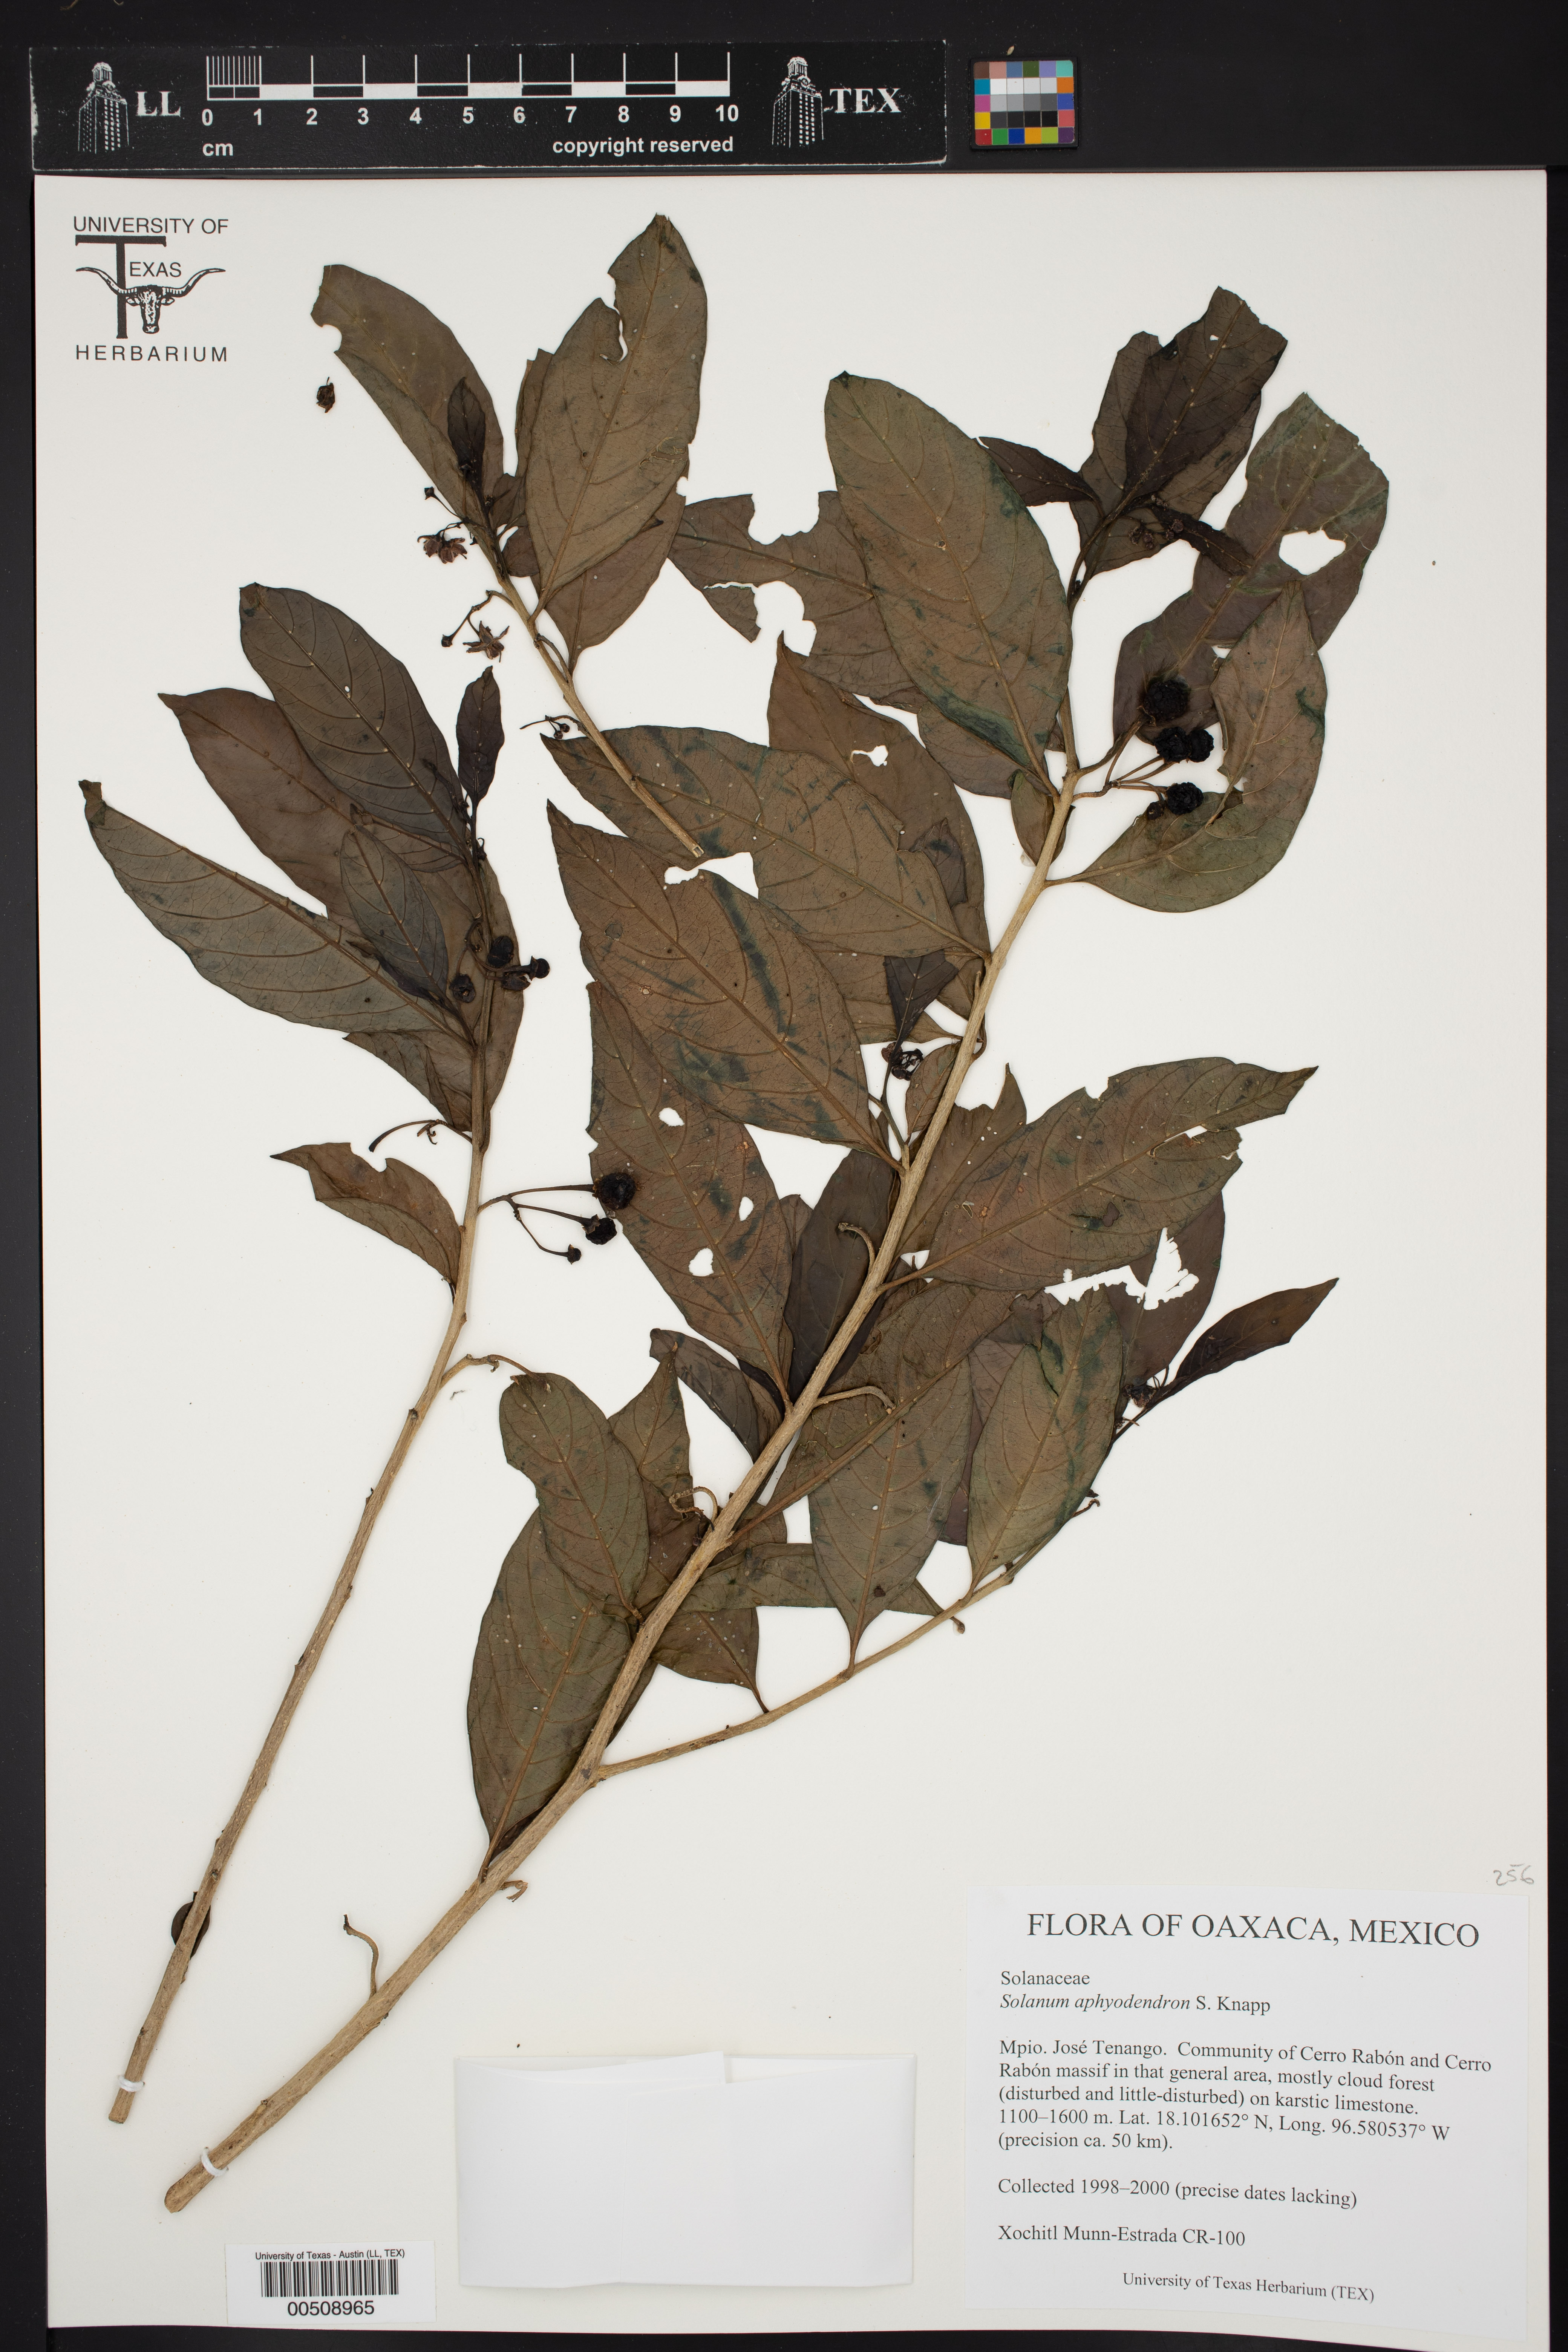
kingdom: Plantae
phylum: Tracheophyta
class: Magnoliopsida
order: Solanales
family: Solanaceae
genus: Solanum
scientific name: Solanum aphyodendron
